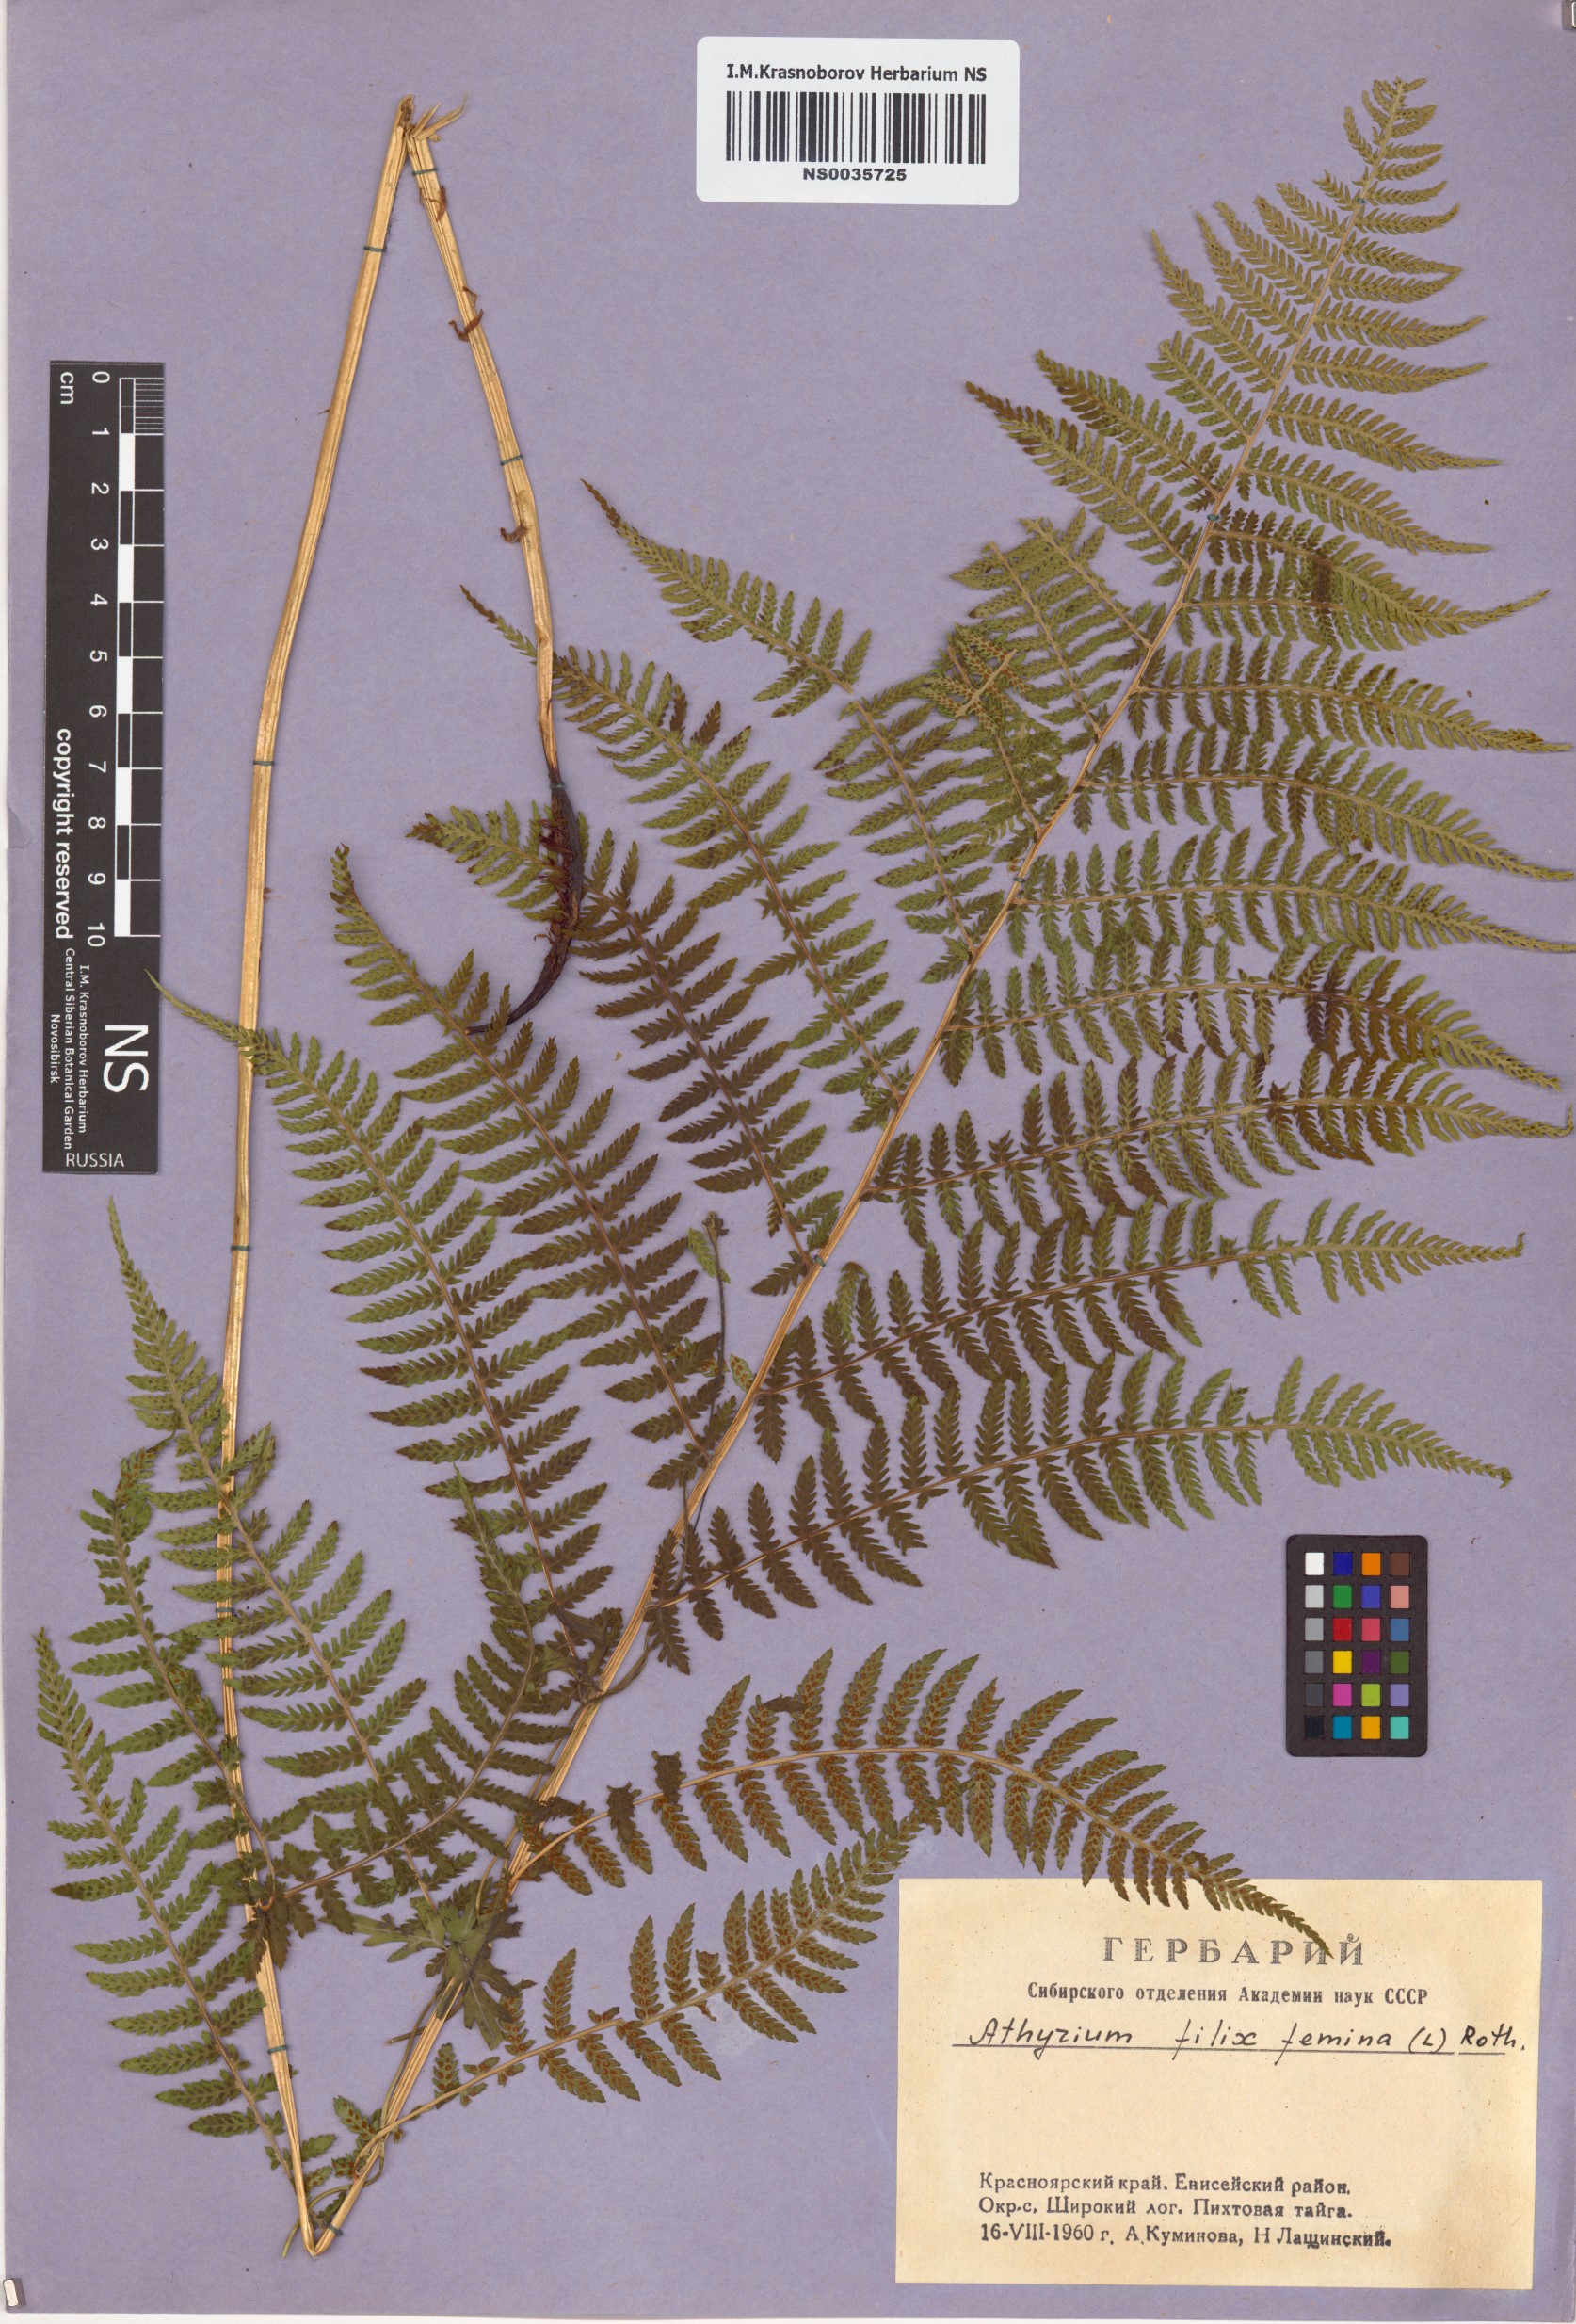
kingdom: Plantae
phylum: Tracheophyta
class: Polypodiopsida
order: Polypodiales
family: Athyriaceae
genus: Athyrium
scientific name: Athyrium filix-femina
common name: Lady fern
